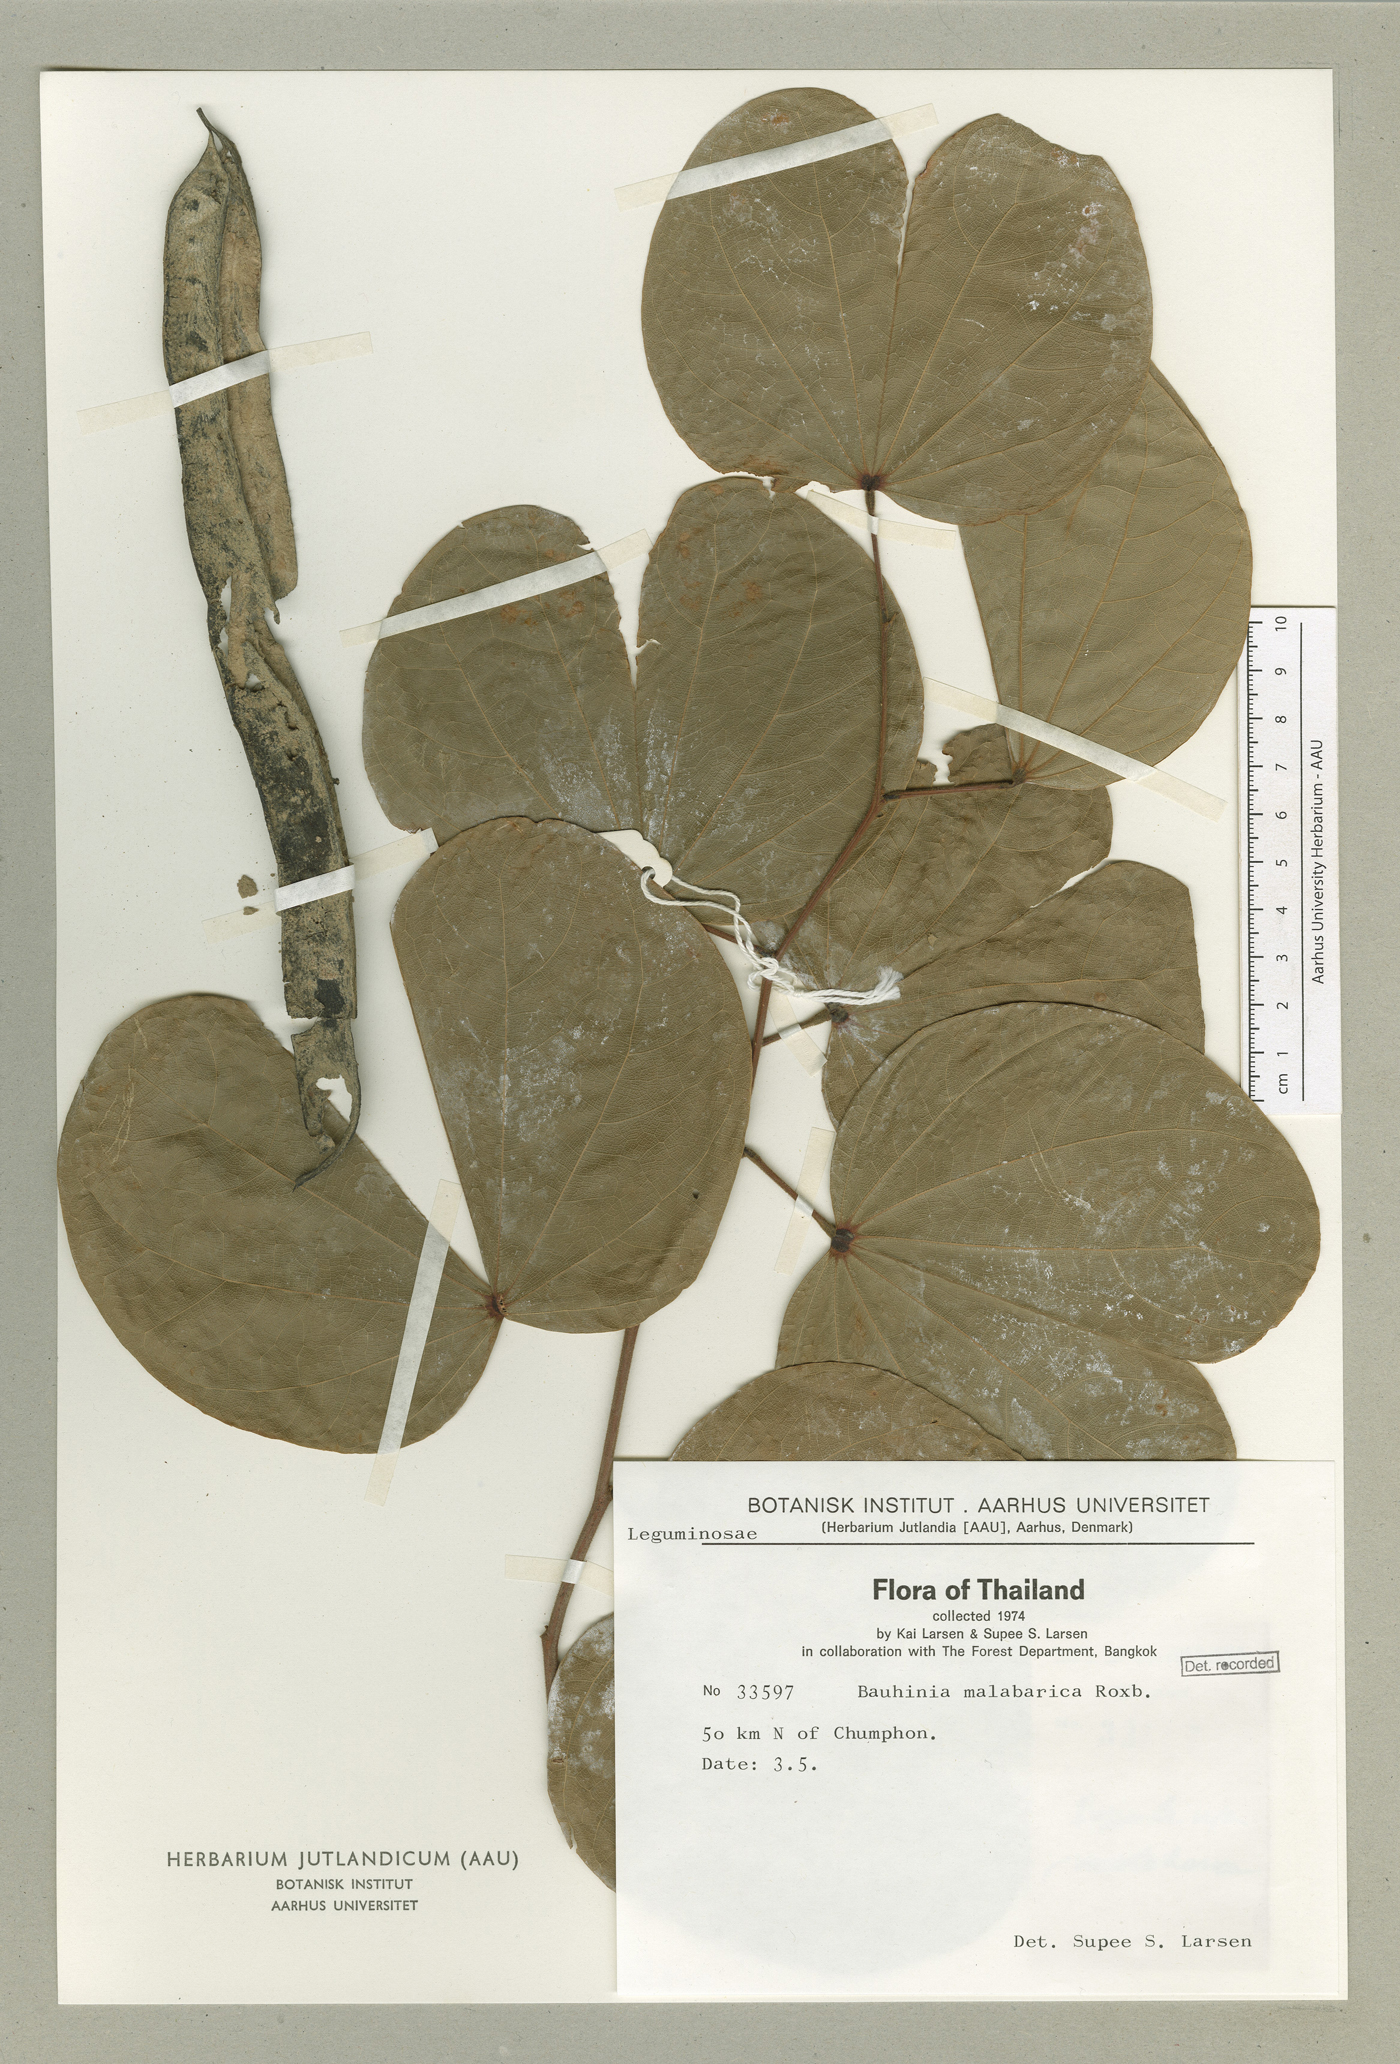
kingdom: Plantae
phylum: Tracheophyta
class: Magnoliopsida
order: Fabales
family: Fabaceae
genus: Piliostigma
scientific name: Piliostigma malabaricum
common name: Malabar bauhinia
